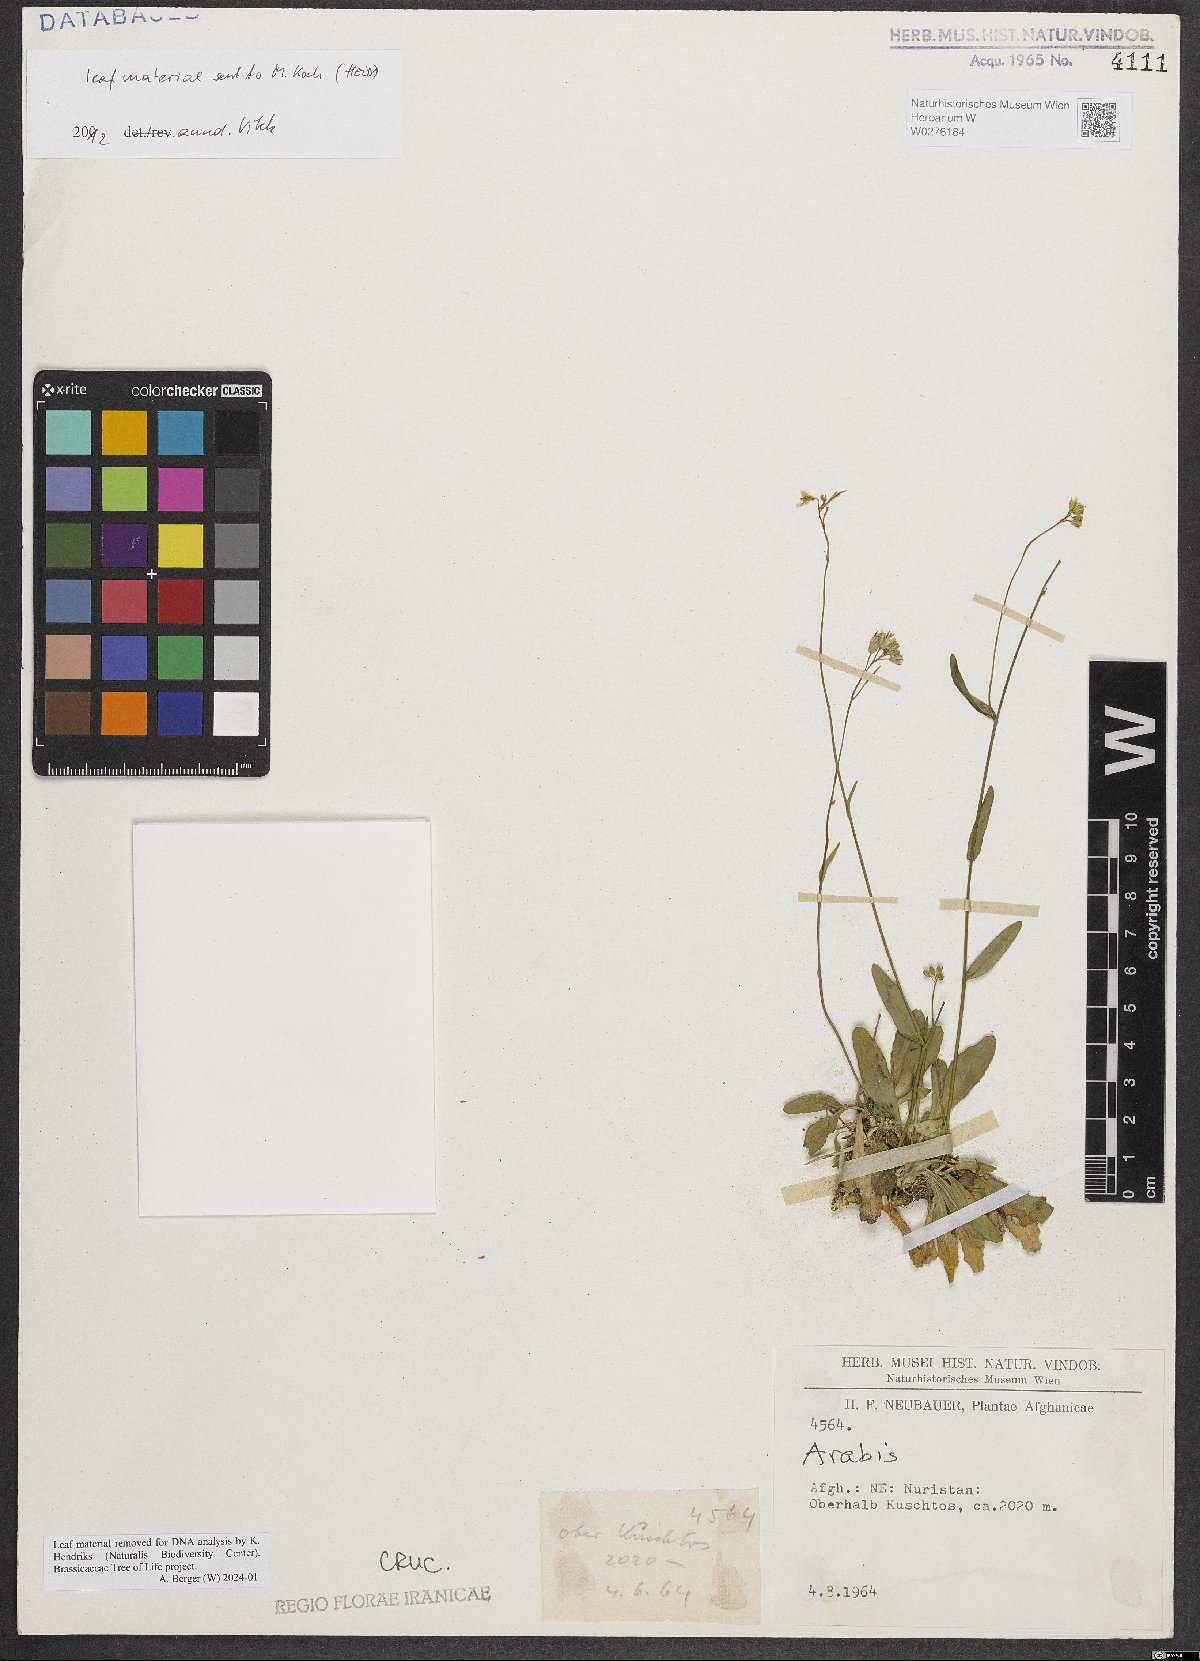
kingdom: Plantae
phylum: Tracheophyta
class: Magnoliopsida
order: Brassicales
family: Brassicaceae
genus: Arabis
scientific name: Arabis nuristanica
